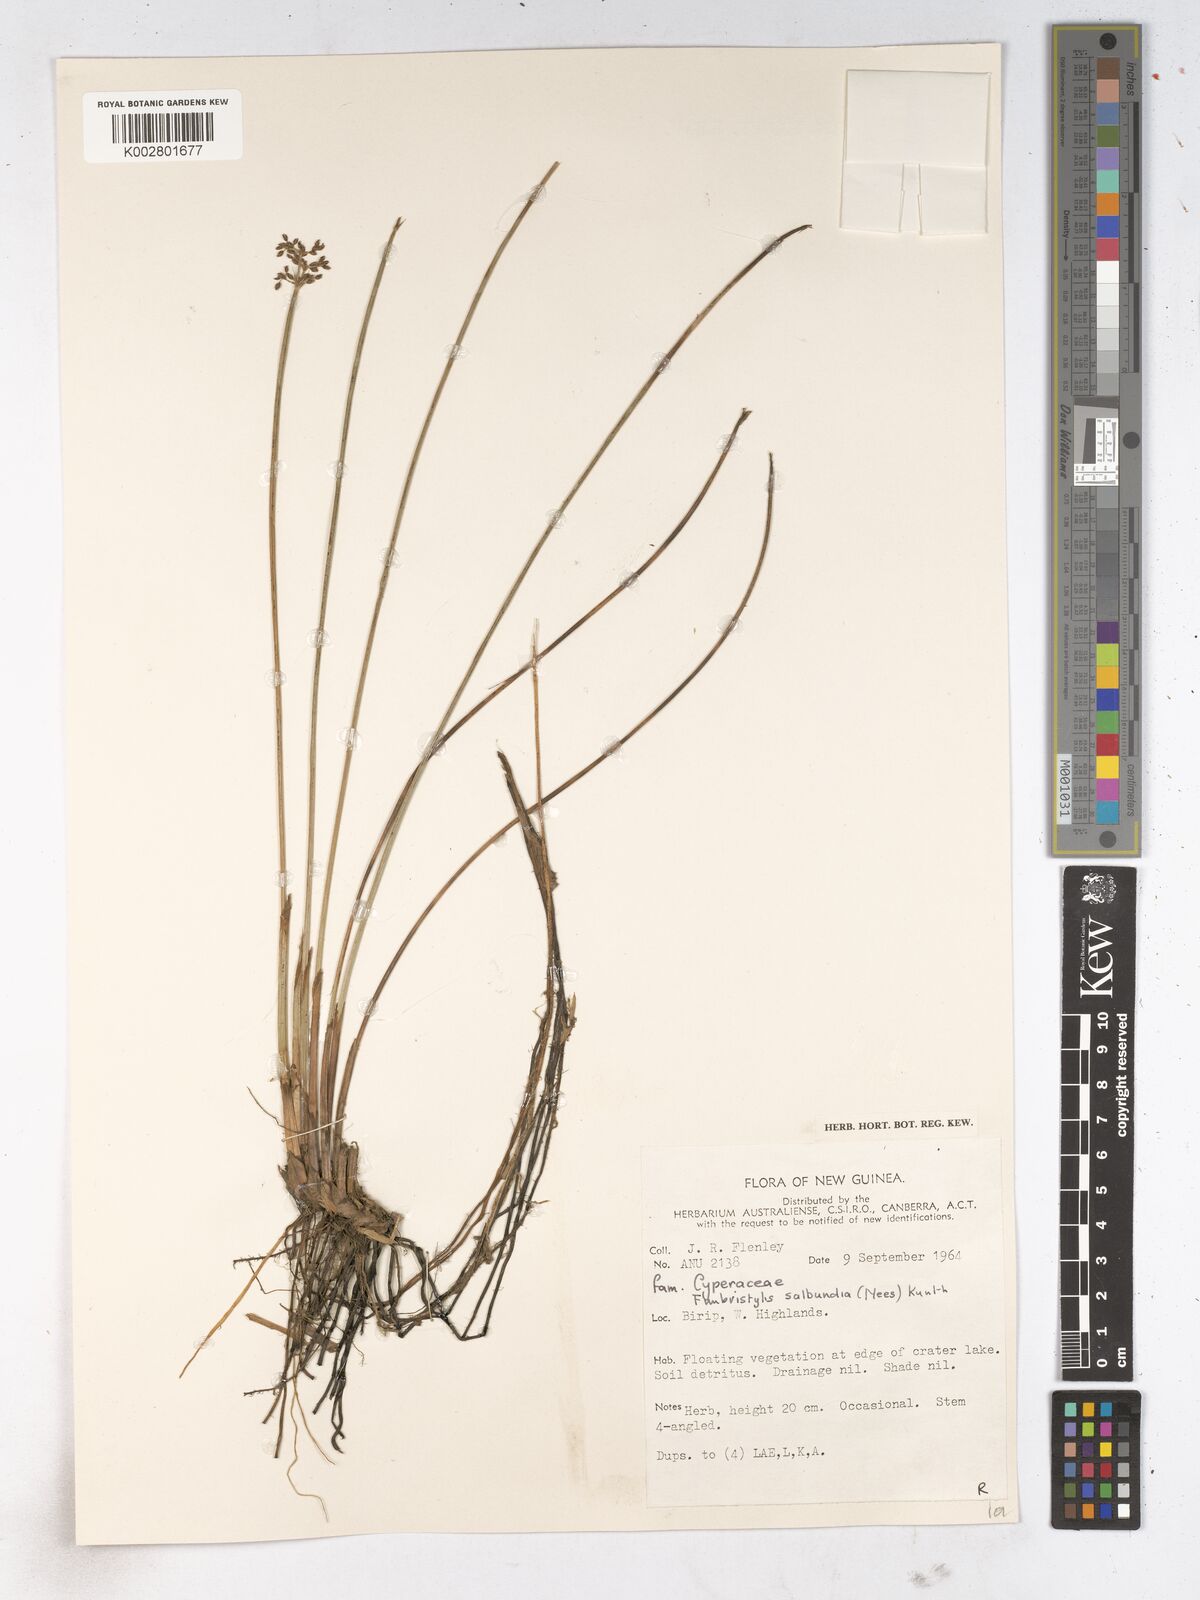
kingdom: Plantae
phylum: Tracheophyta
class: Liliopsida
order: Poales
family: Cyperaceae
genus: Fimbristylis
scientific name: Fimbristylis salbundia
